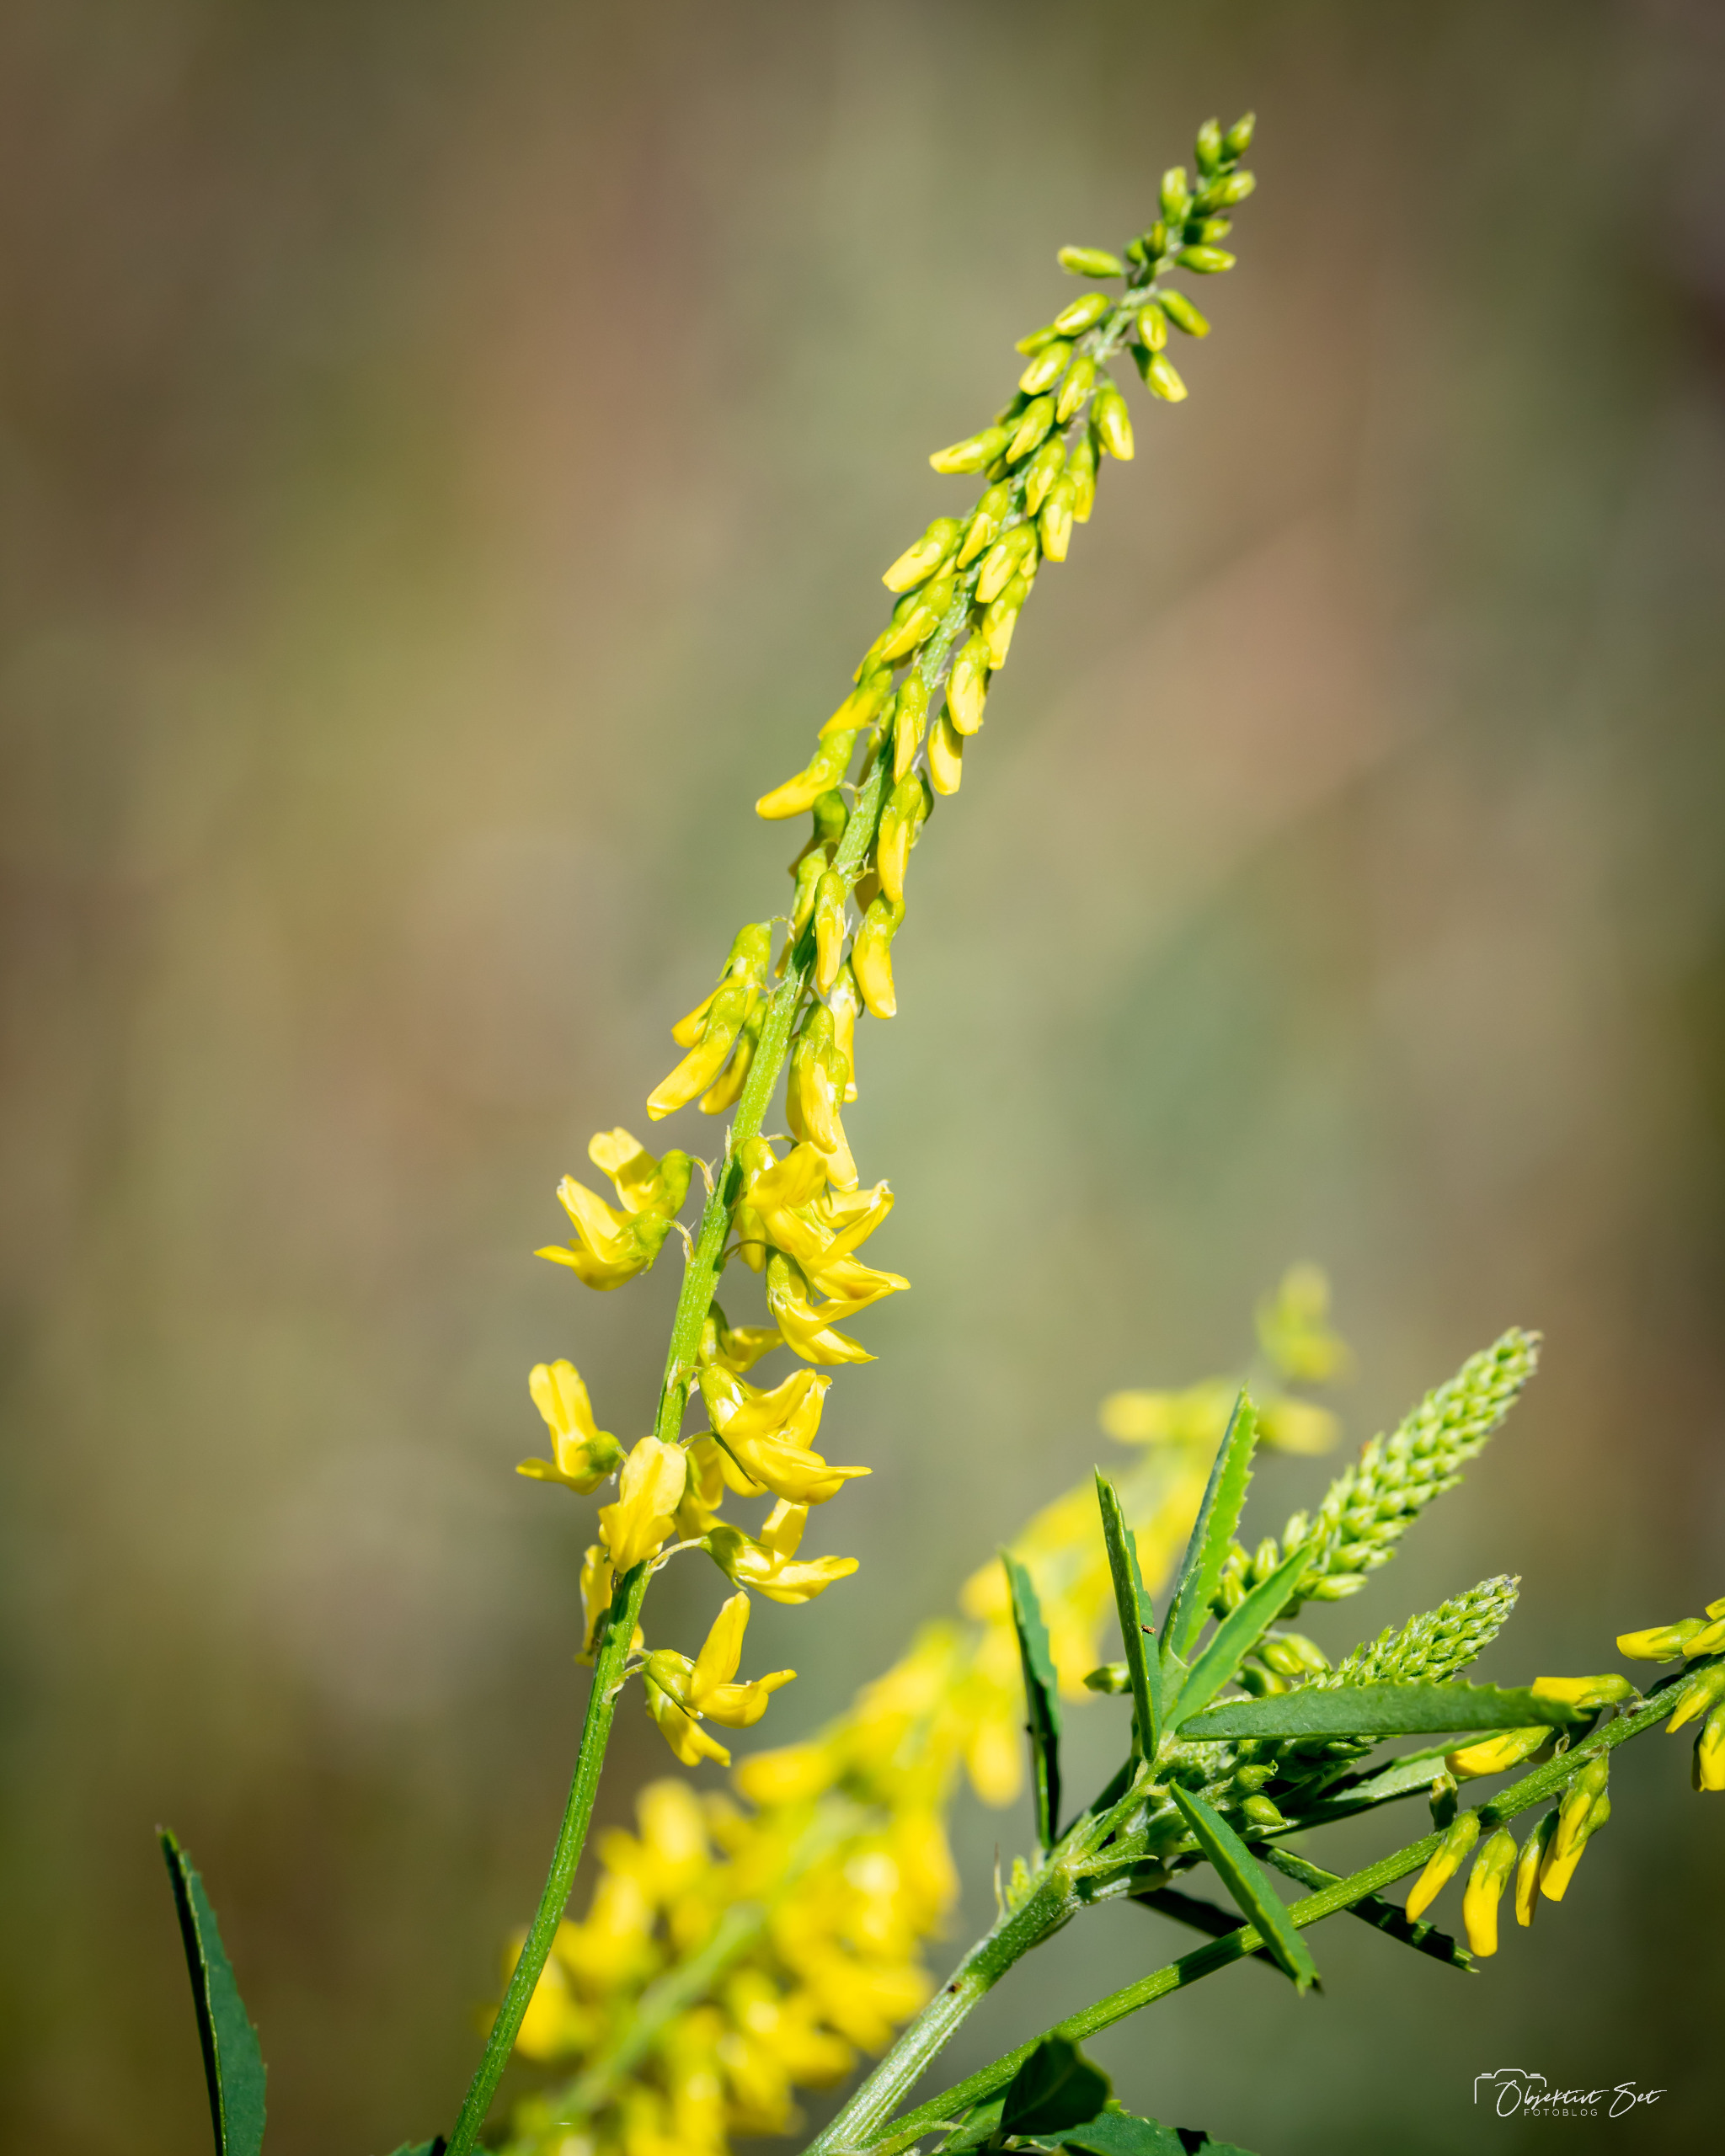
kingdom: Plantae
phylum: Tracheophyta
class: Magnoliopsida
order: Fabales
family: Fabaceae
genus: Melilotus
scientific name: Melilotus officinalis
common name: Mark-stenkløver
